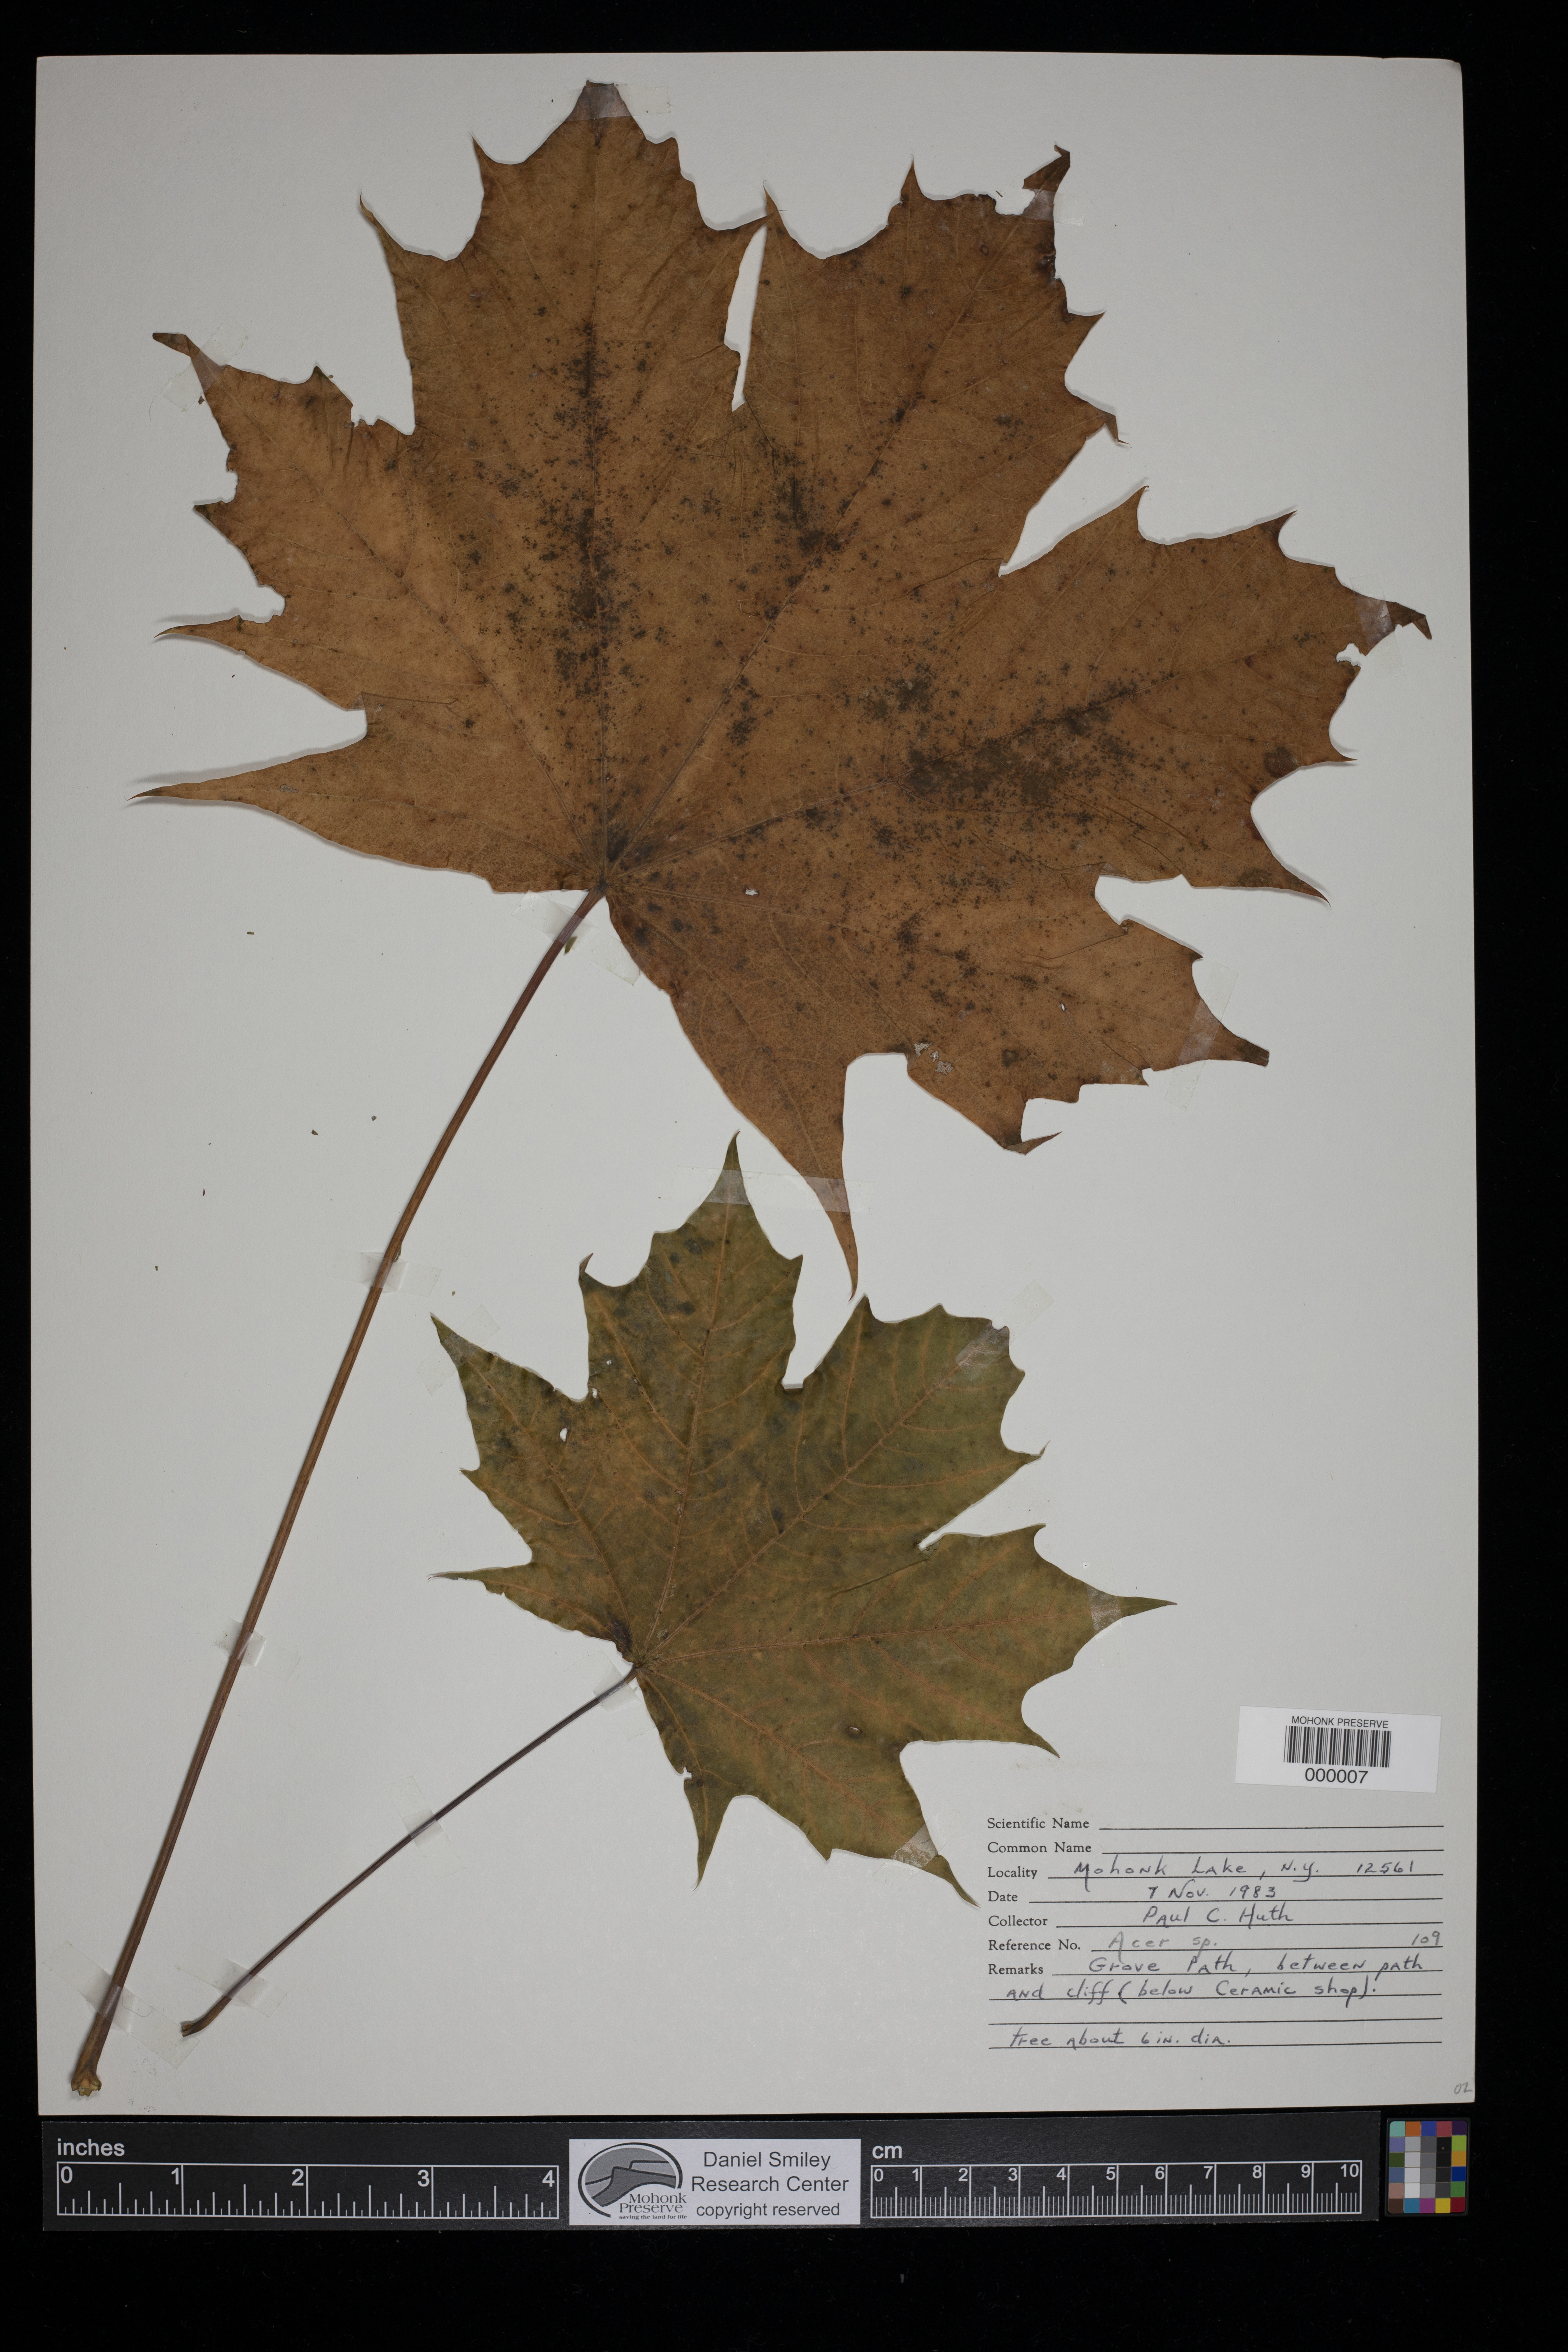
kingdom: Plantae
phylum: Tracheophyta
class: Magnoliopsida
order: Sapindales
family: Sapindaceae
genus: Acer
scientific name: Acer
